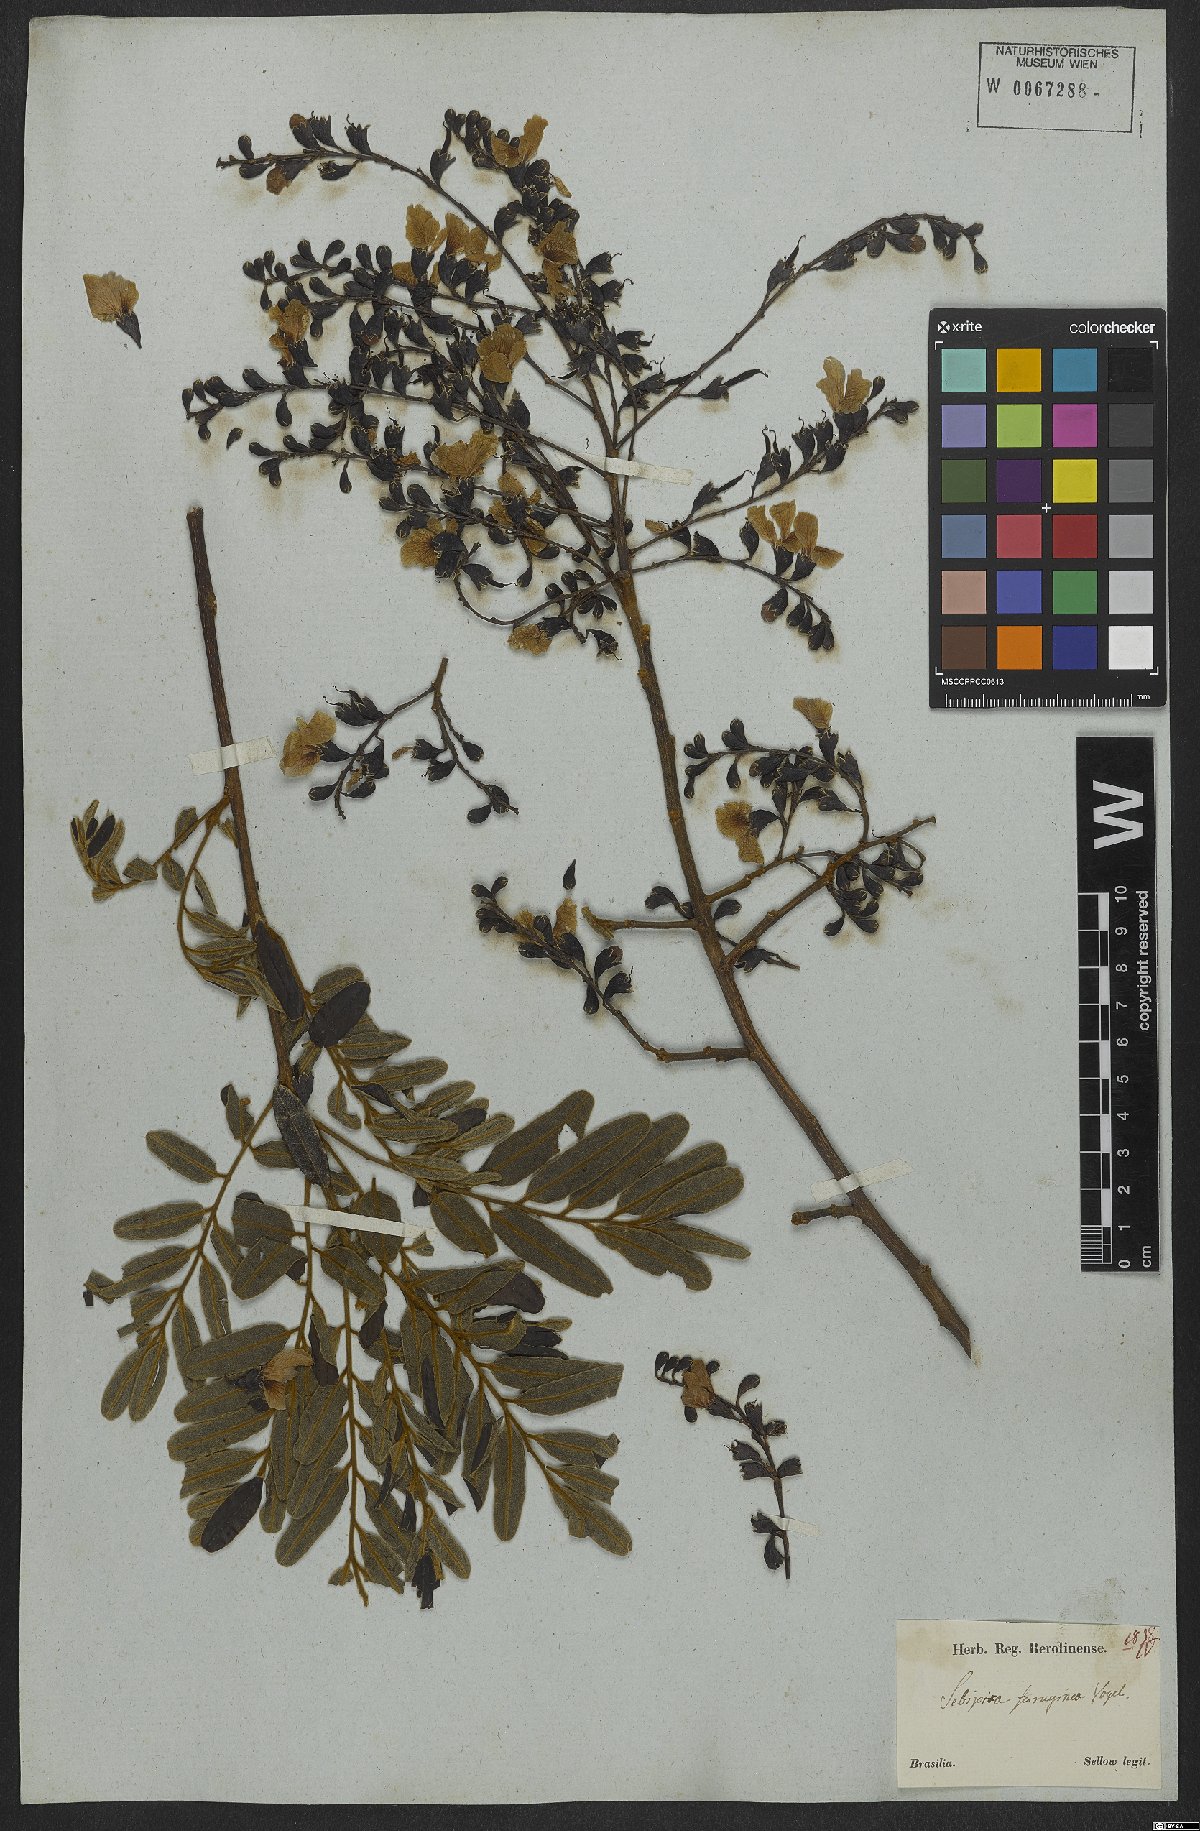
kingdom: Plantae
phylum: Tracheophyta
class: Magnoliopsida
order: Fabales
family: Fabaceae
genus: Bowdichia
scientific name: Bowdichia virgilioides
